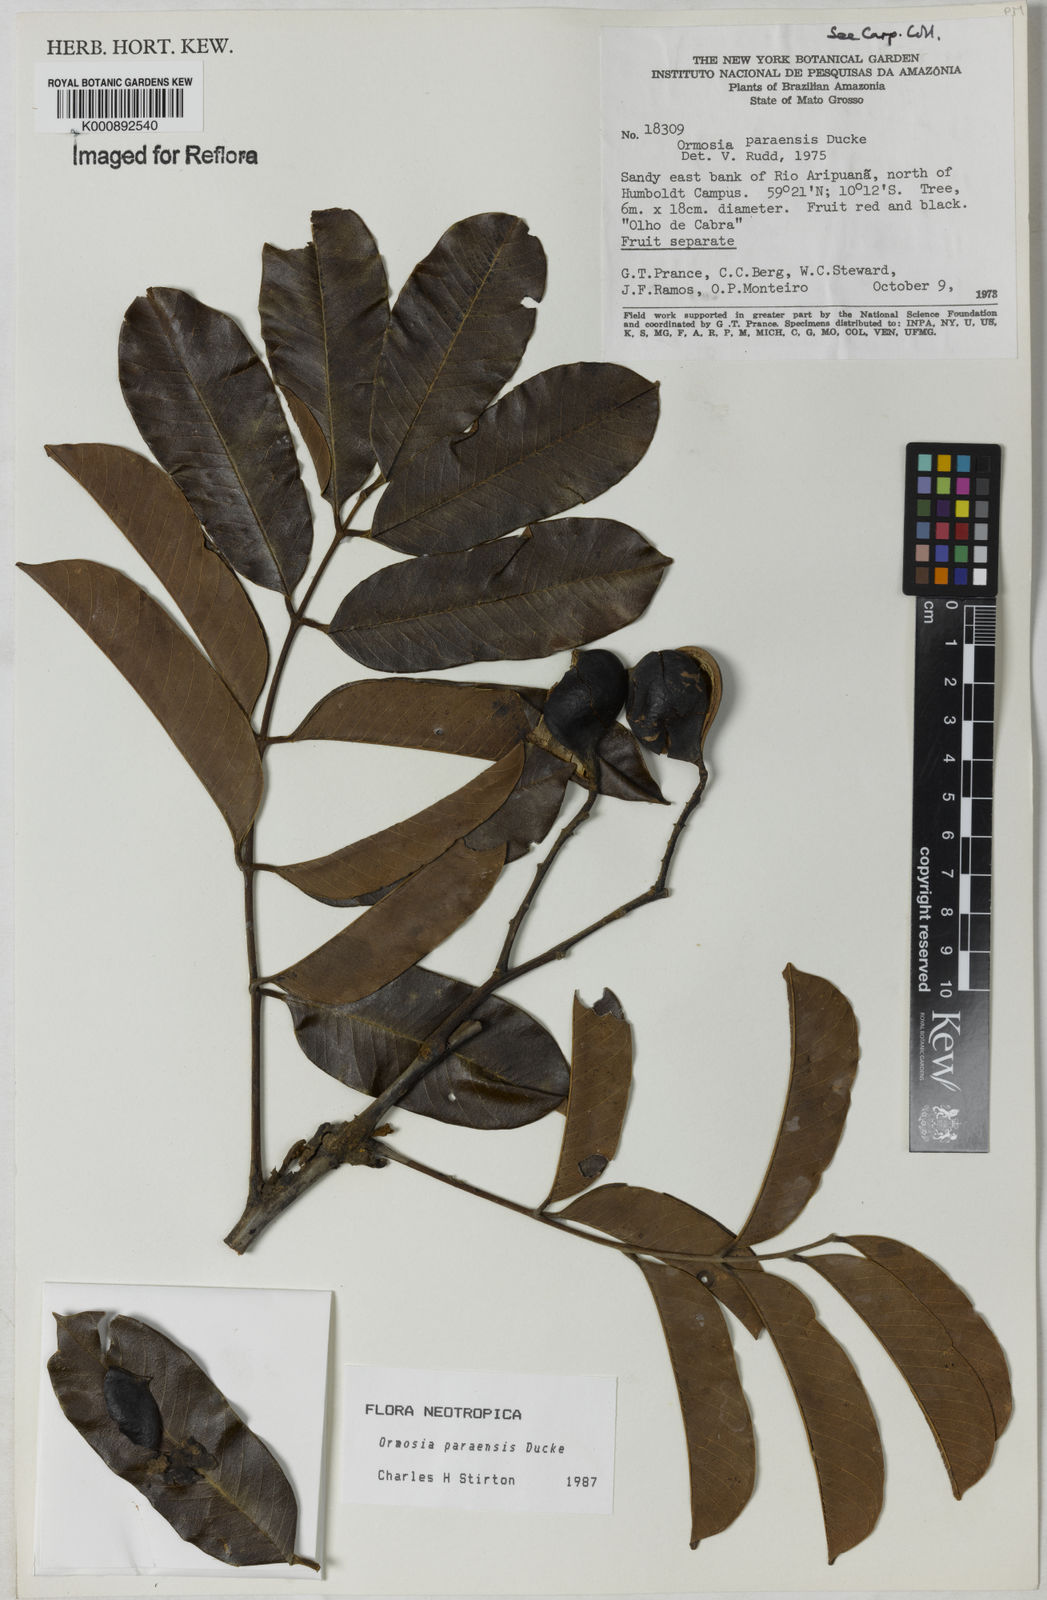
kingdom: Plantae
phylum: Tracheophyta
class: Magnoliopsida
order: Fabales
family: Fabaceae
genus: Ormosia
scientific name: Ormosia paraensis
